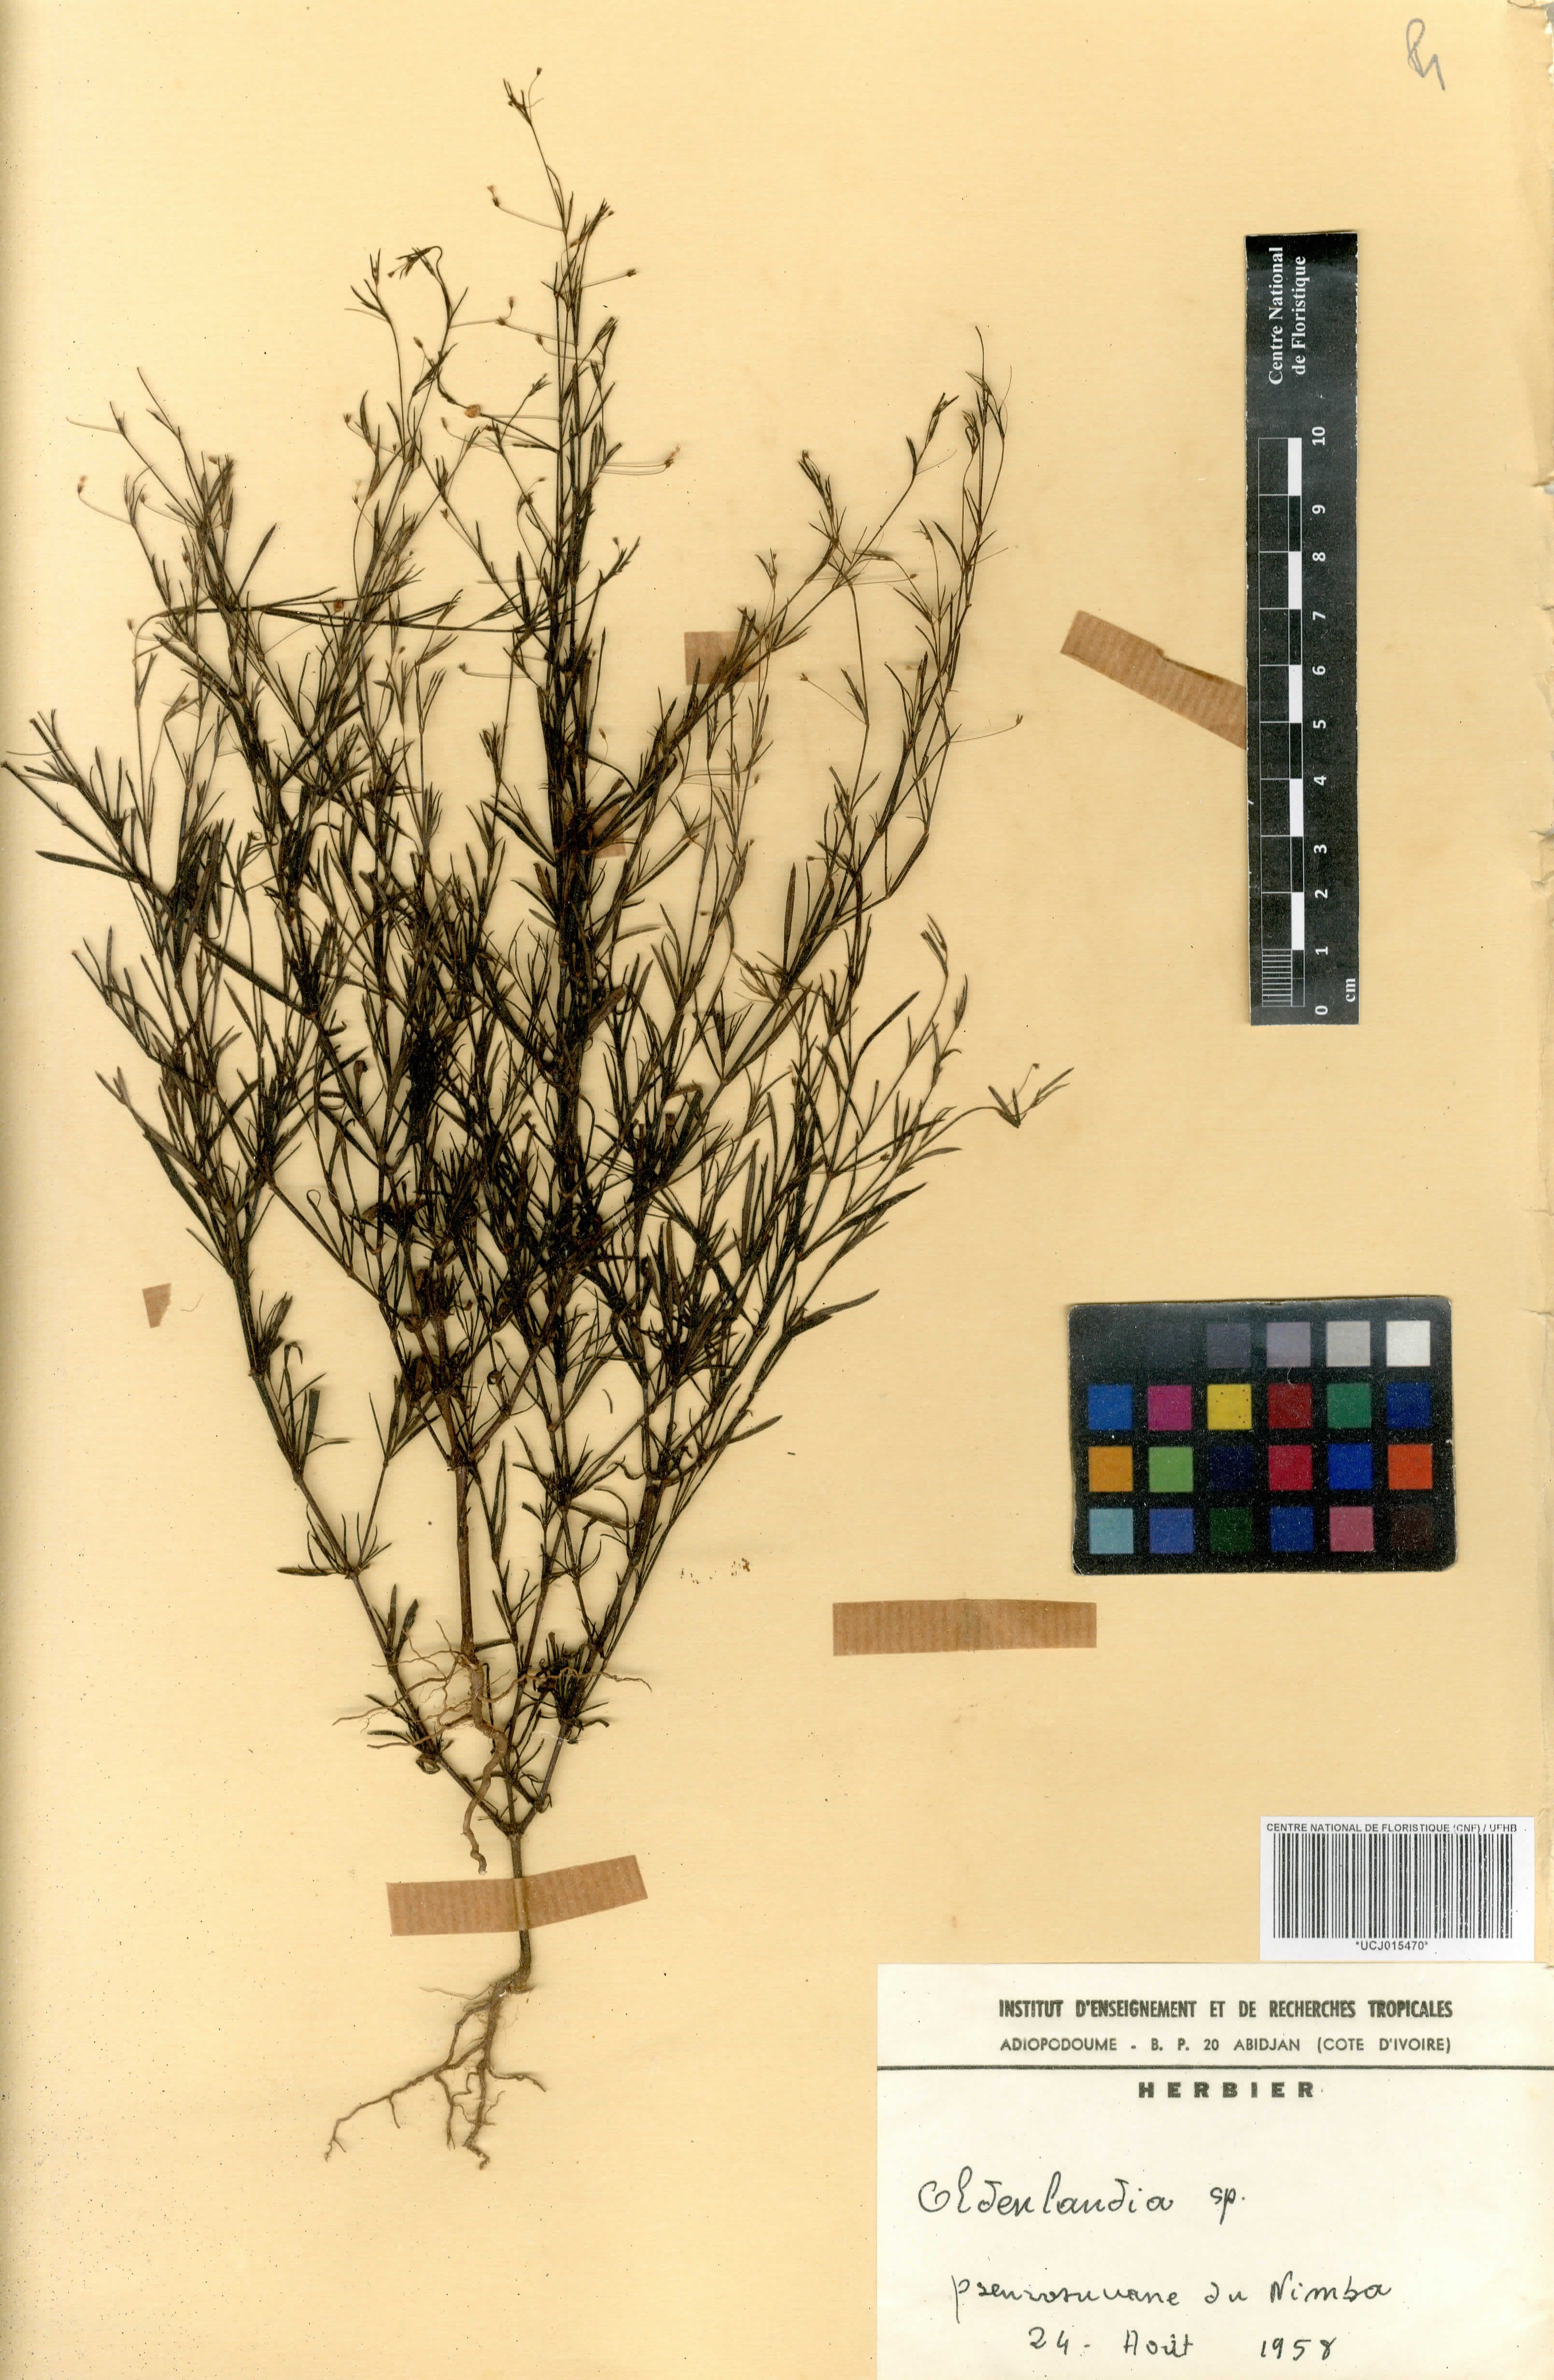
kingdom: Plantae
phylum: Tracheophyta
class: Magnoliopsida
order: Gentianales
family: Rubiaceae
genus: Oldenlandia
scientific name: Oldenlandia
